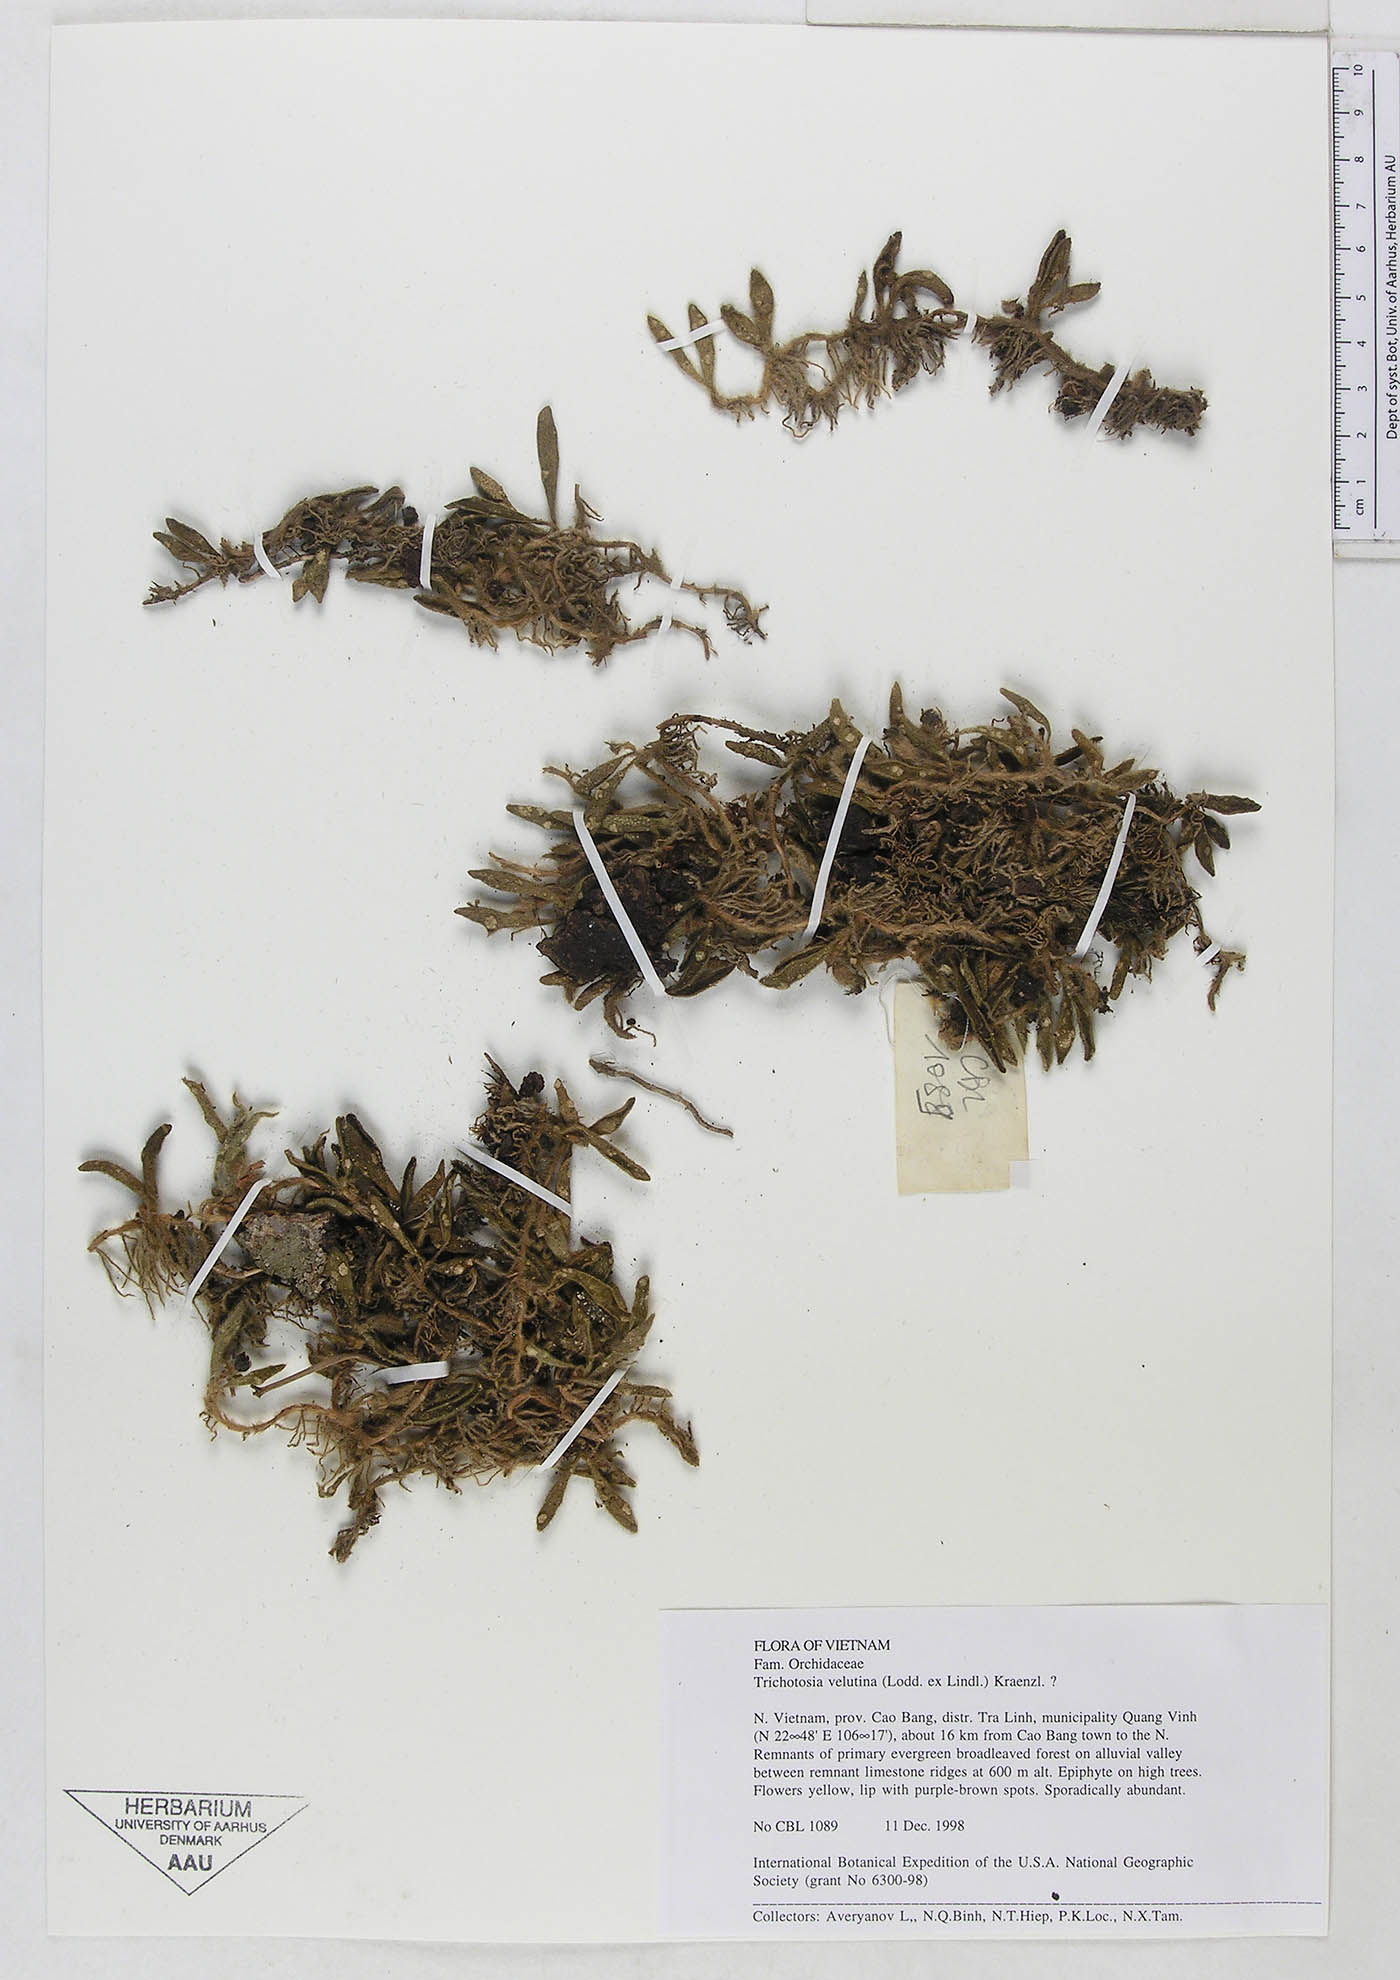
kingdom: Plantae
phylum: Tracheophyta
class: Liliopsida
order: Asparagales
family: Orchidaceae
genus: Trichotosia
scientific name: Trichotosia velutina
